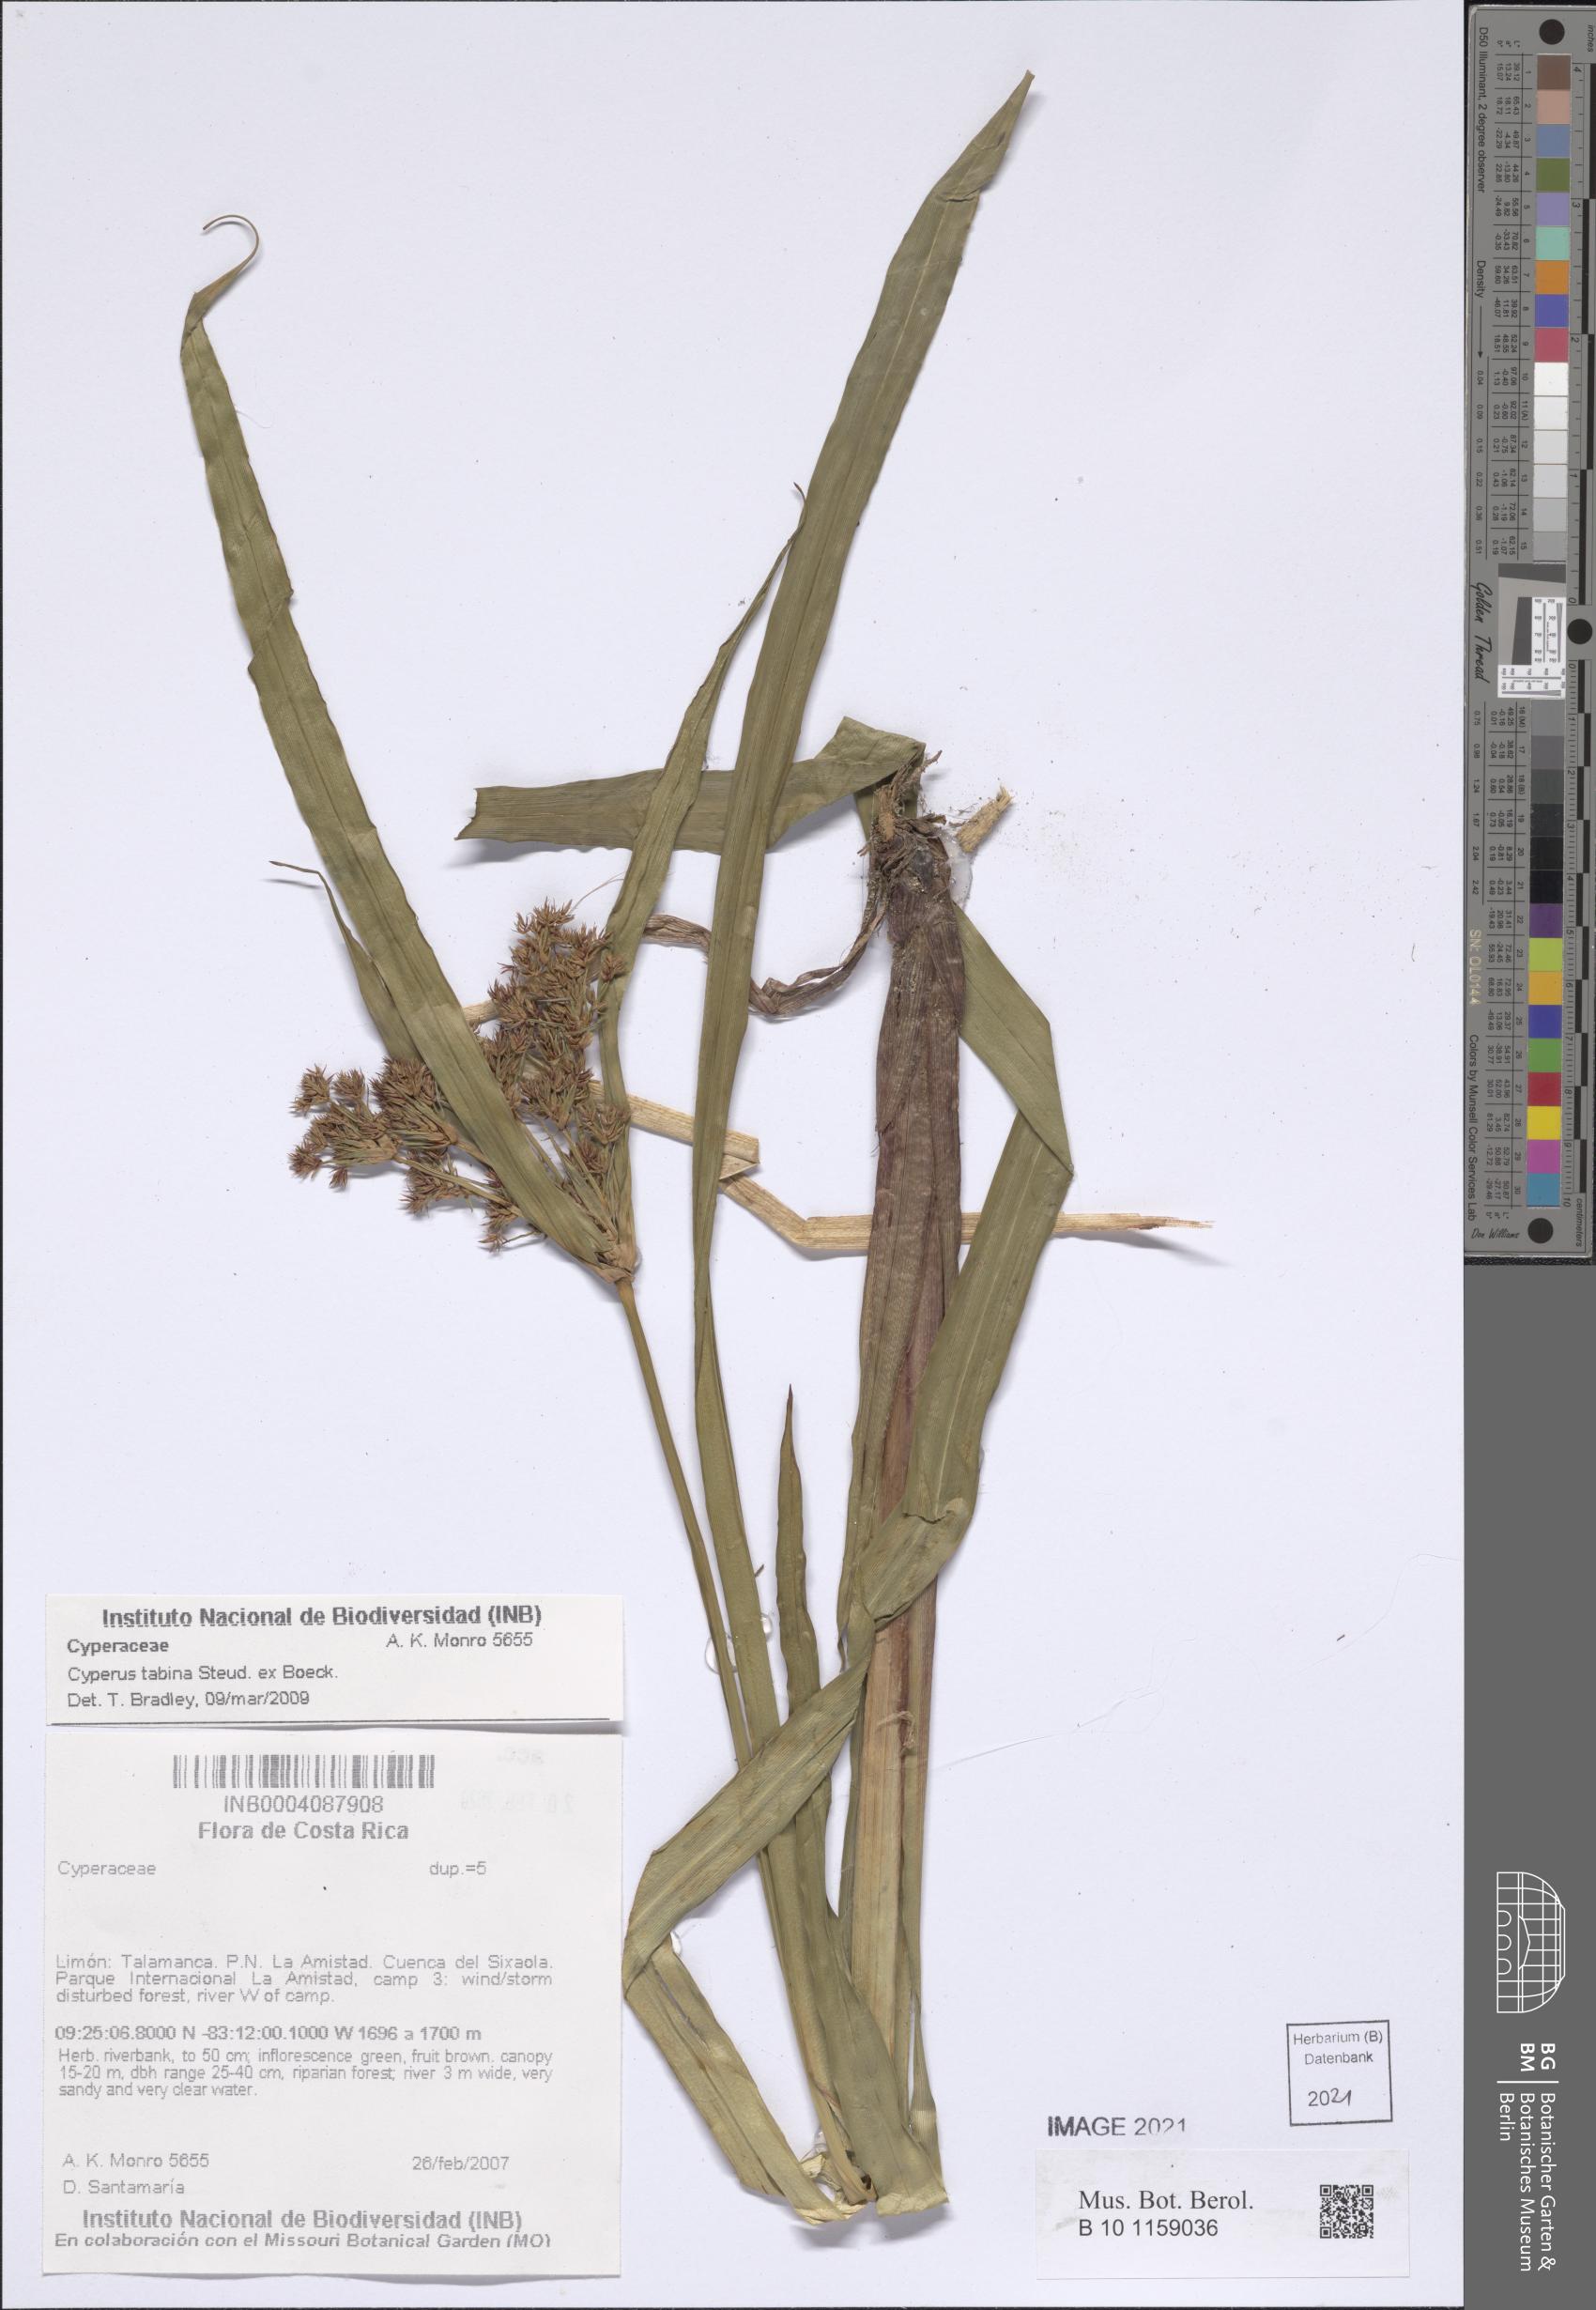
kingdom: Plantae
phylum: Tracheophyta
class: Liliopsida
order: Poales
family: Cyperaceae
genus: Cyperus
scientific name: Cyperus tabina
